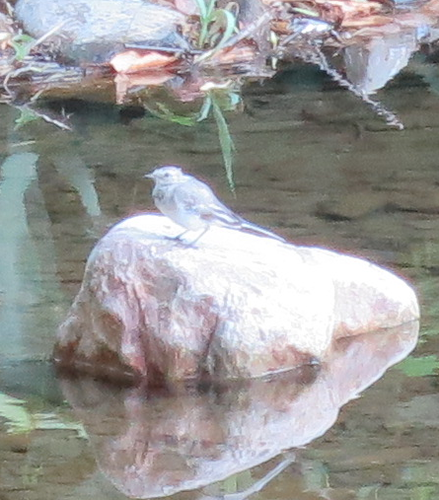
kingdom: Animalia
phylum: Chordata
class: Aves
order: Passeriformes
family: Motacillidae
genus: Motacilla
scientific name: Motacilla alba
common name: White wagtail
